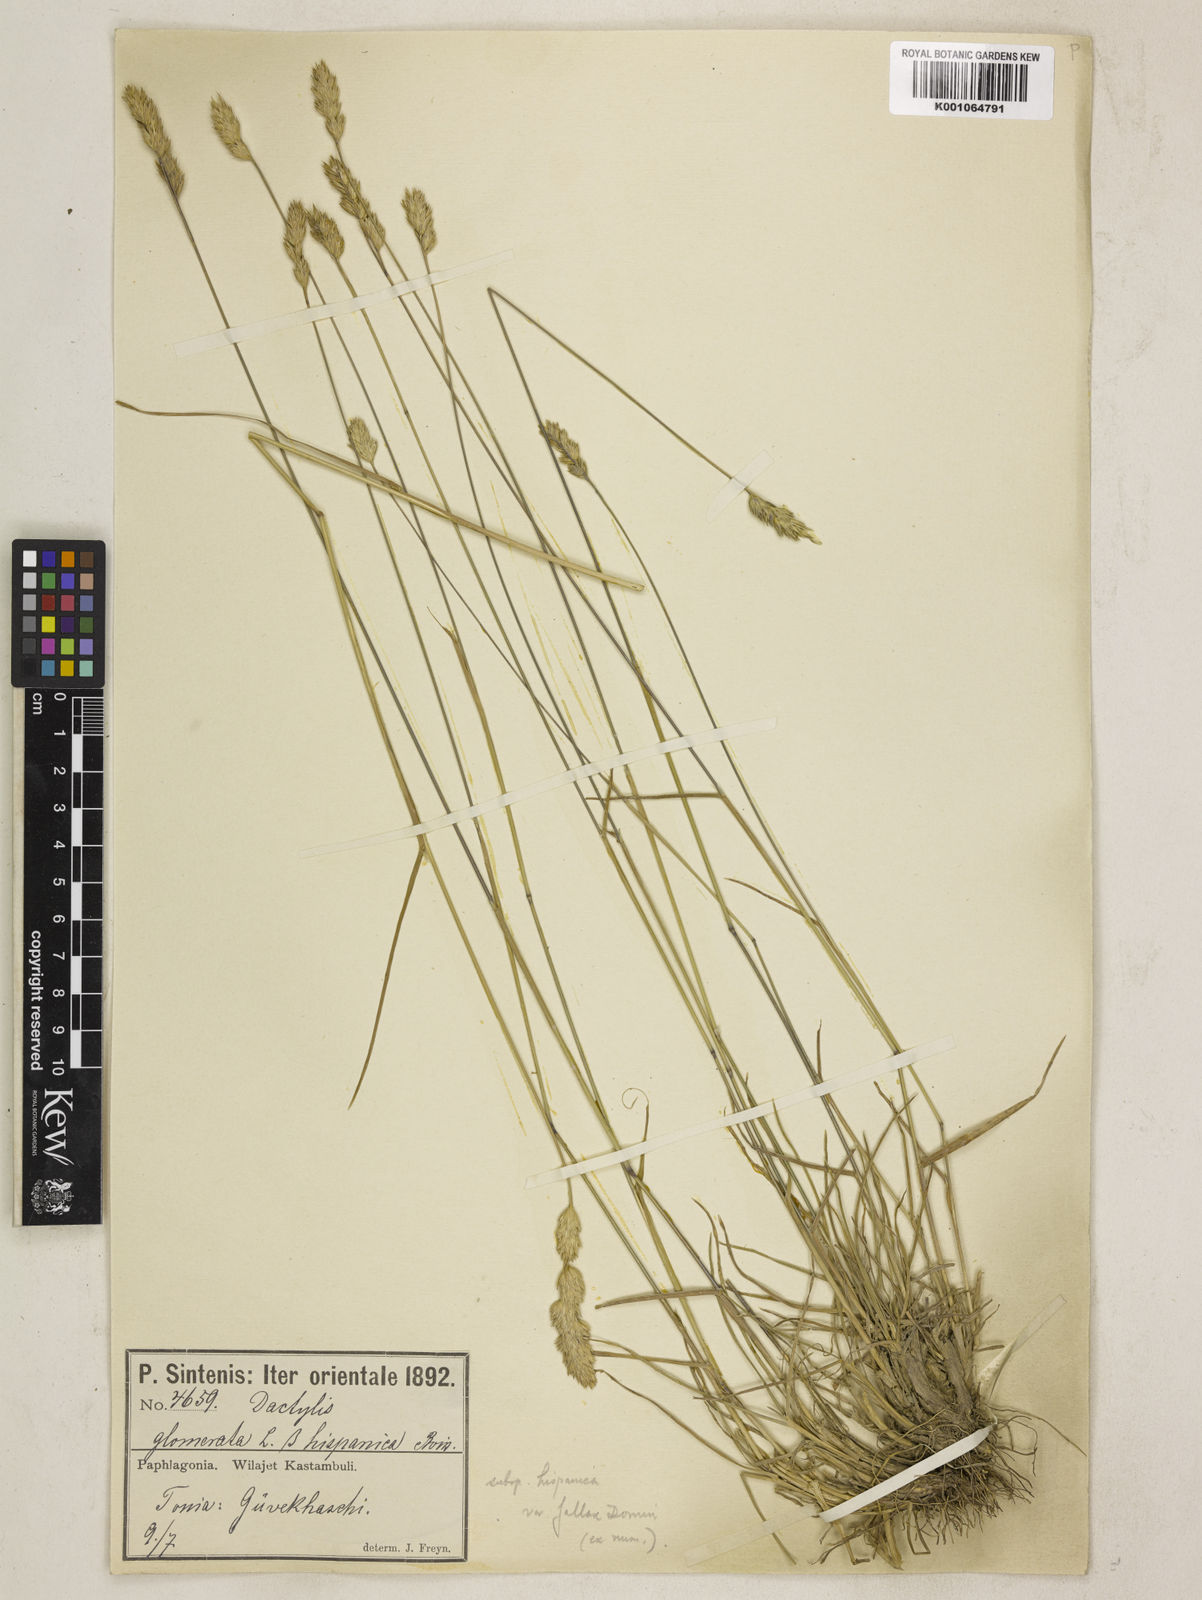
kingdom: Plantae
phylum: Tracheophyta
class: Liliopsida
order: Poales
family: Poaceae
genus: Dactylis
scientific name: Dactylis glomerata
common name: Orchardgrass
